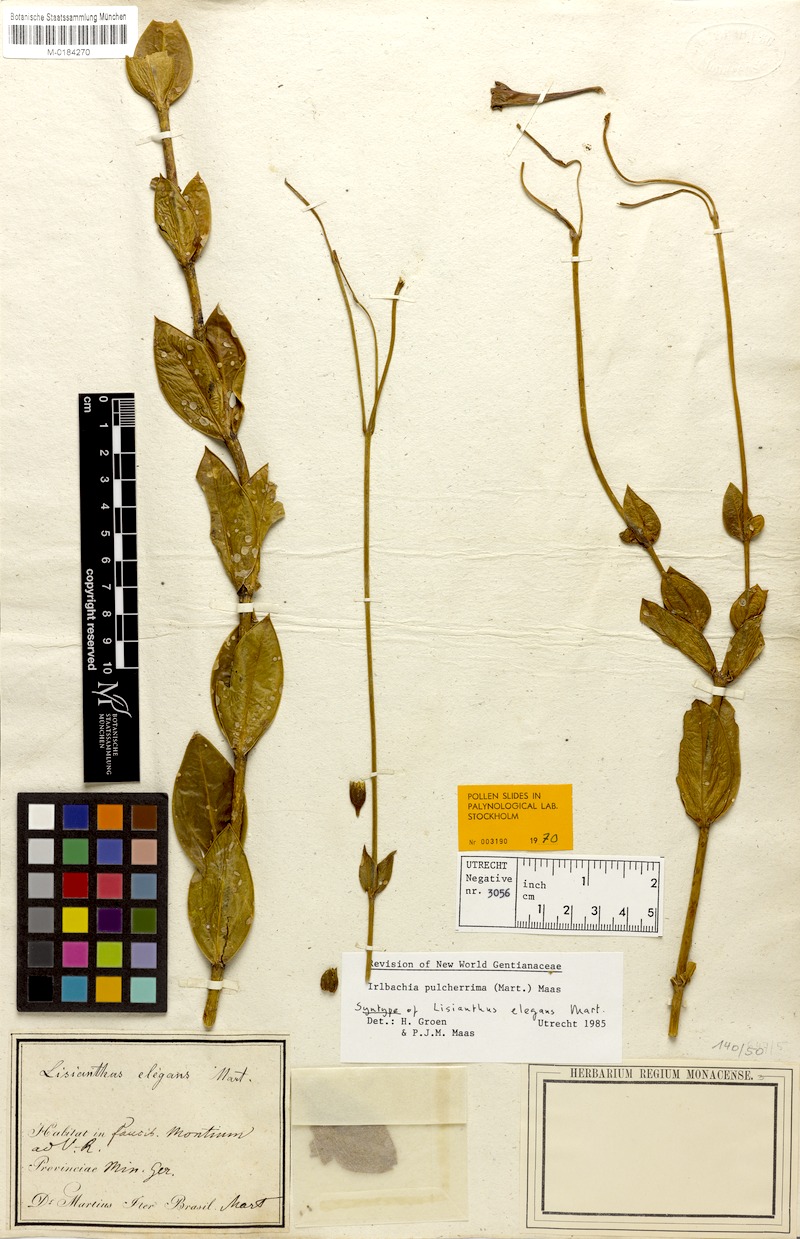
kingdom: Plantae
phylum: Tracheophyta
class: Magnoliopsida
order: Gentianales
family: Gentianaceae
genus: Calolisianthus
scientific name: Calolisianthus pulcherrimus
